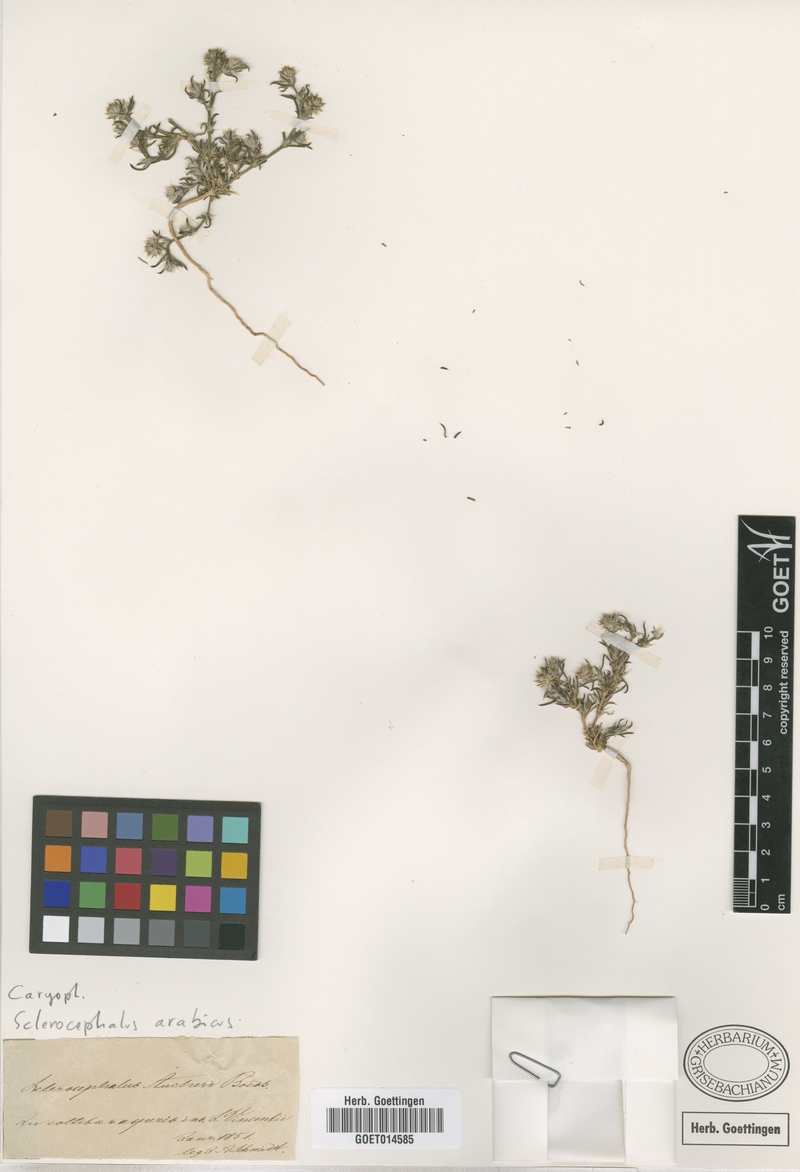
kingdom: Plantae
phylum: Tracheophyta
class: Magnoliopsida
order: Caryophyllales
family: Caryophyllaceae
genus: Gymnocarpos
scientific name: Gymnocarpos sclerocephalus
